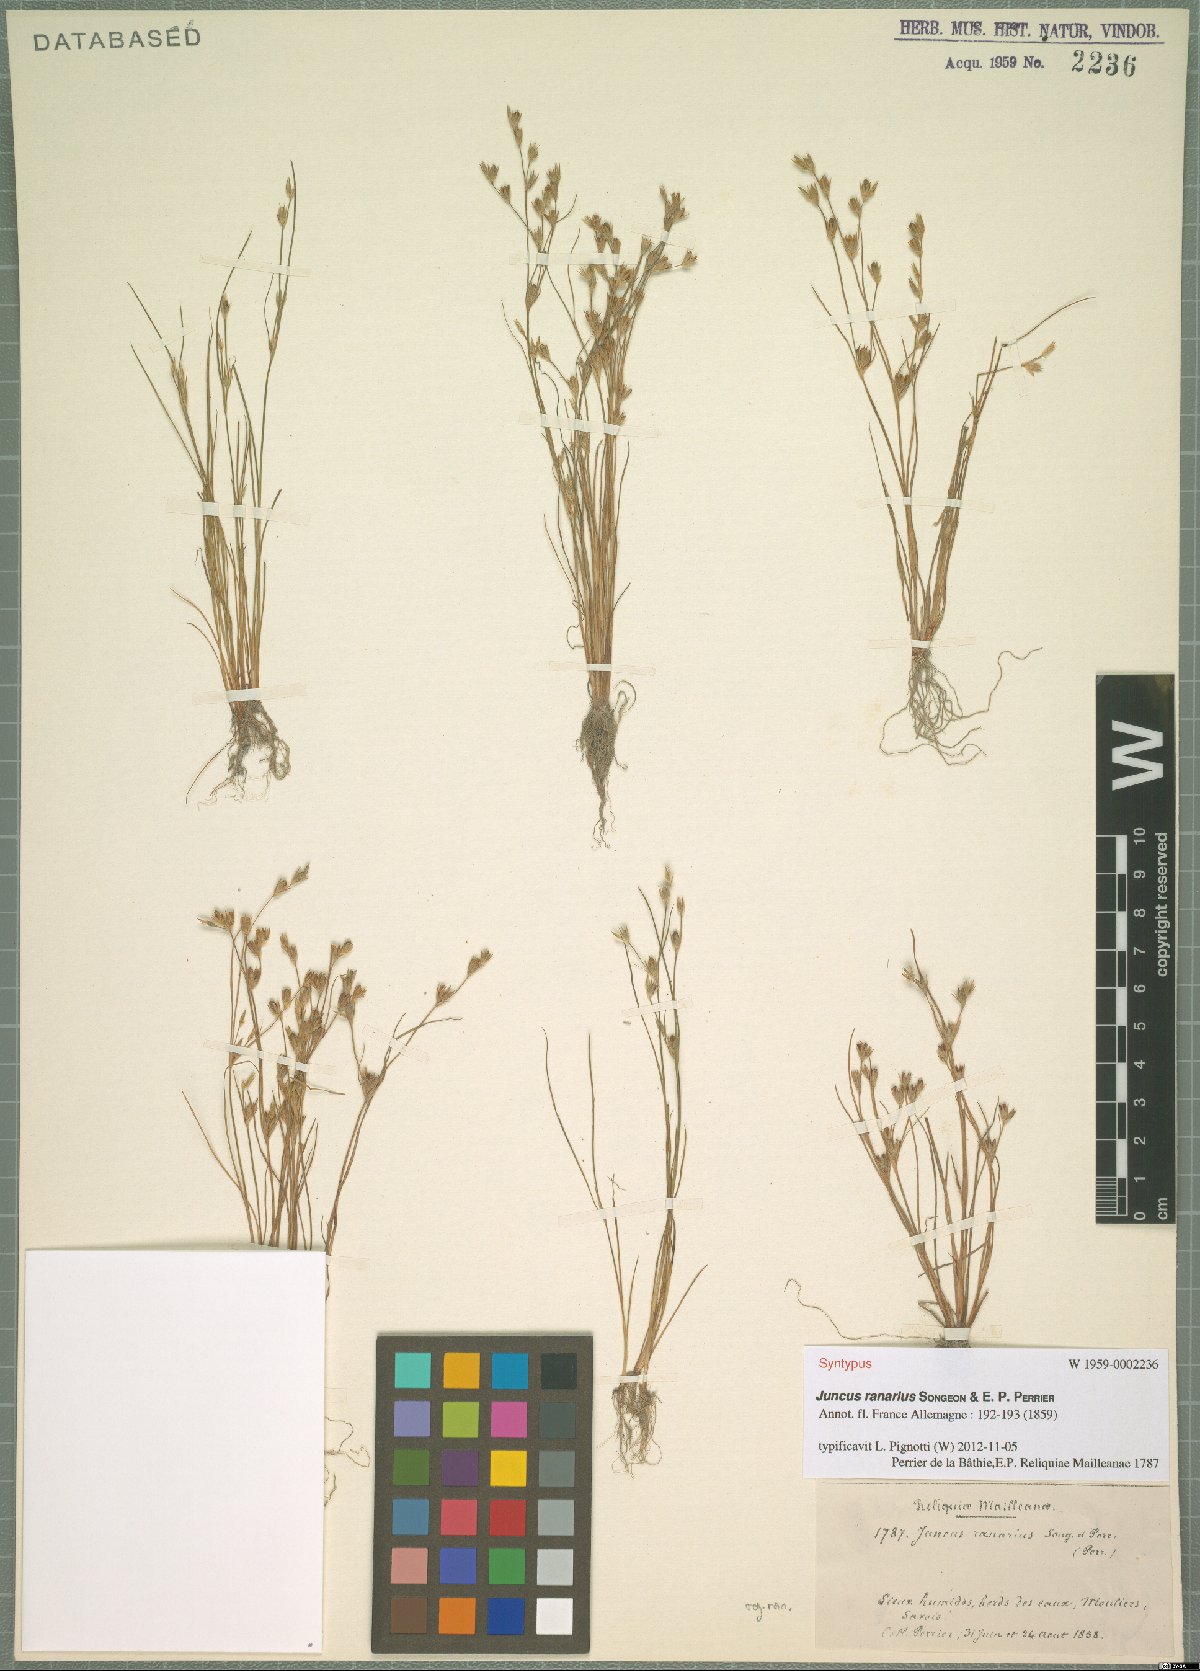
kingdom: Plantae
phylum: Tracheophyta
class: Liliopsida
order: Poales
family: Juncaceae
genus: Juncus
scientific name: Juncus ranarius
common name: Frog rush
